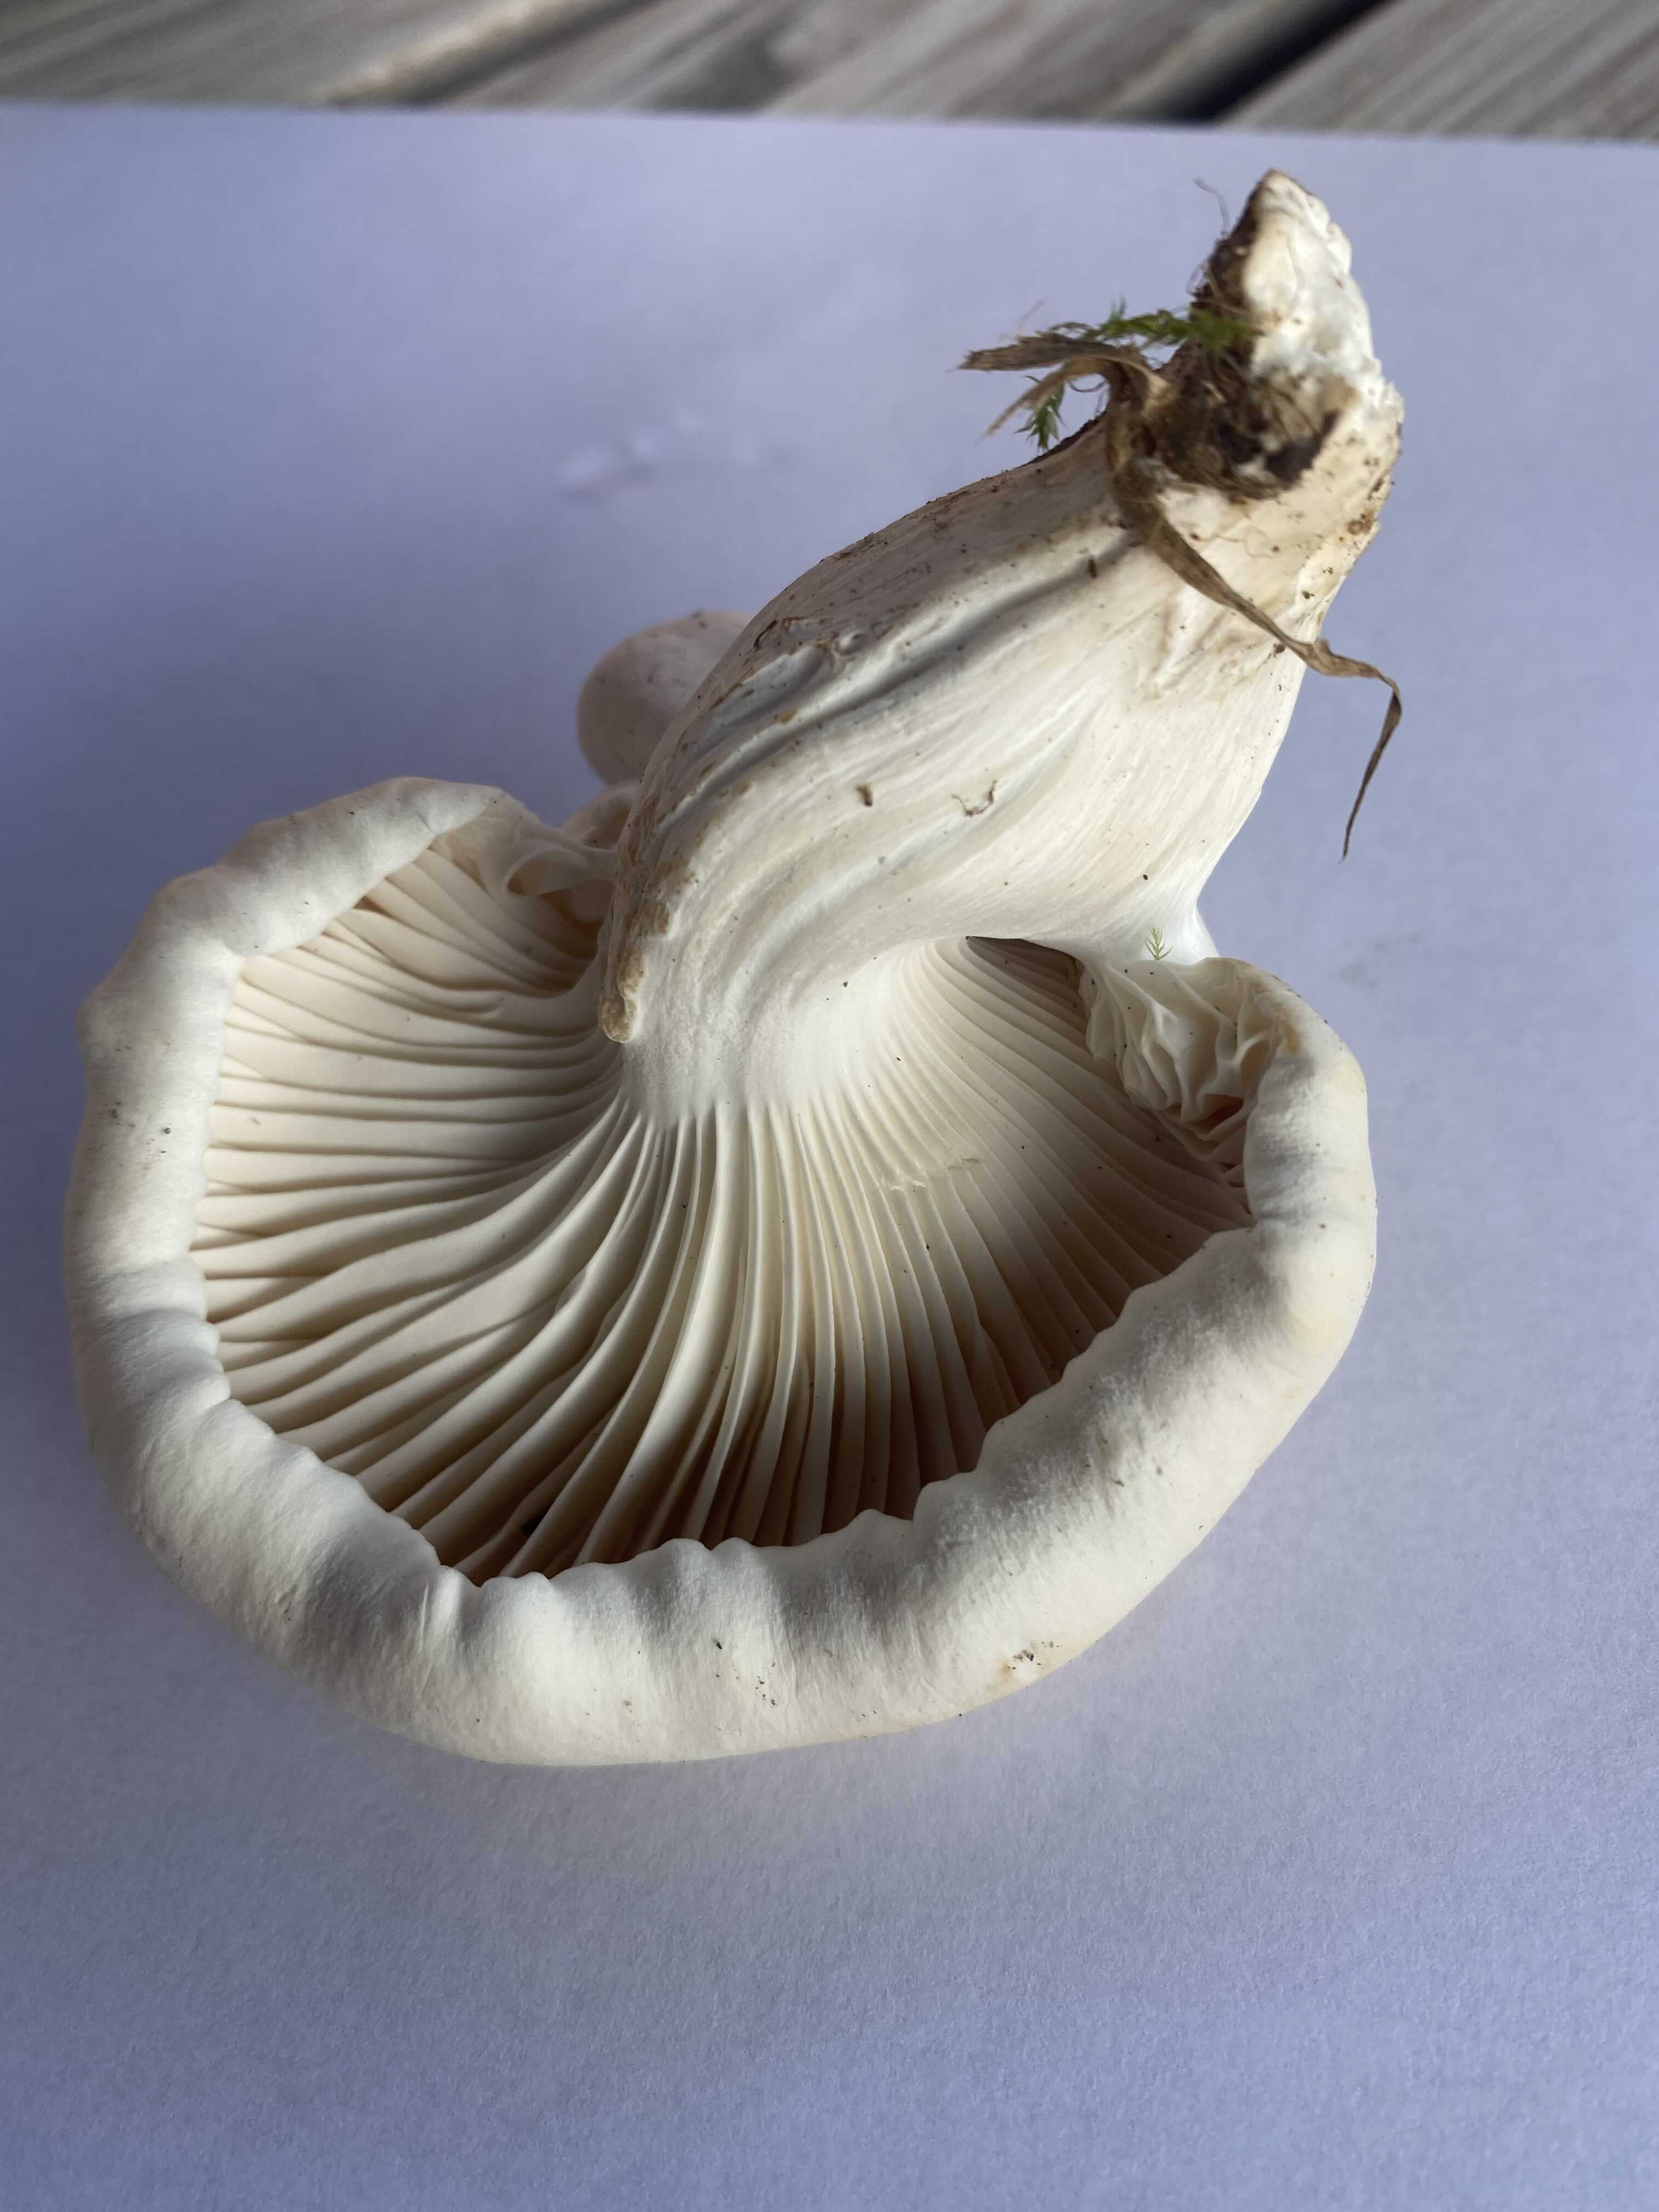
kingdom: Fungi
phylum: Basidiomycota
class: Agaricomycetes
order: Agaricales
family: Hygrophoraceae
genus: Cuphophyllus
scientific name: Cuphophyllus pratensis
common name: bleg vokshat
